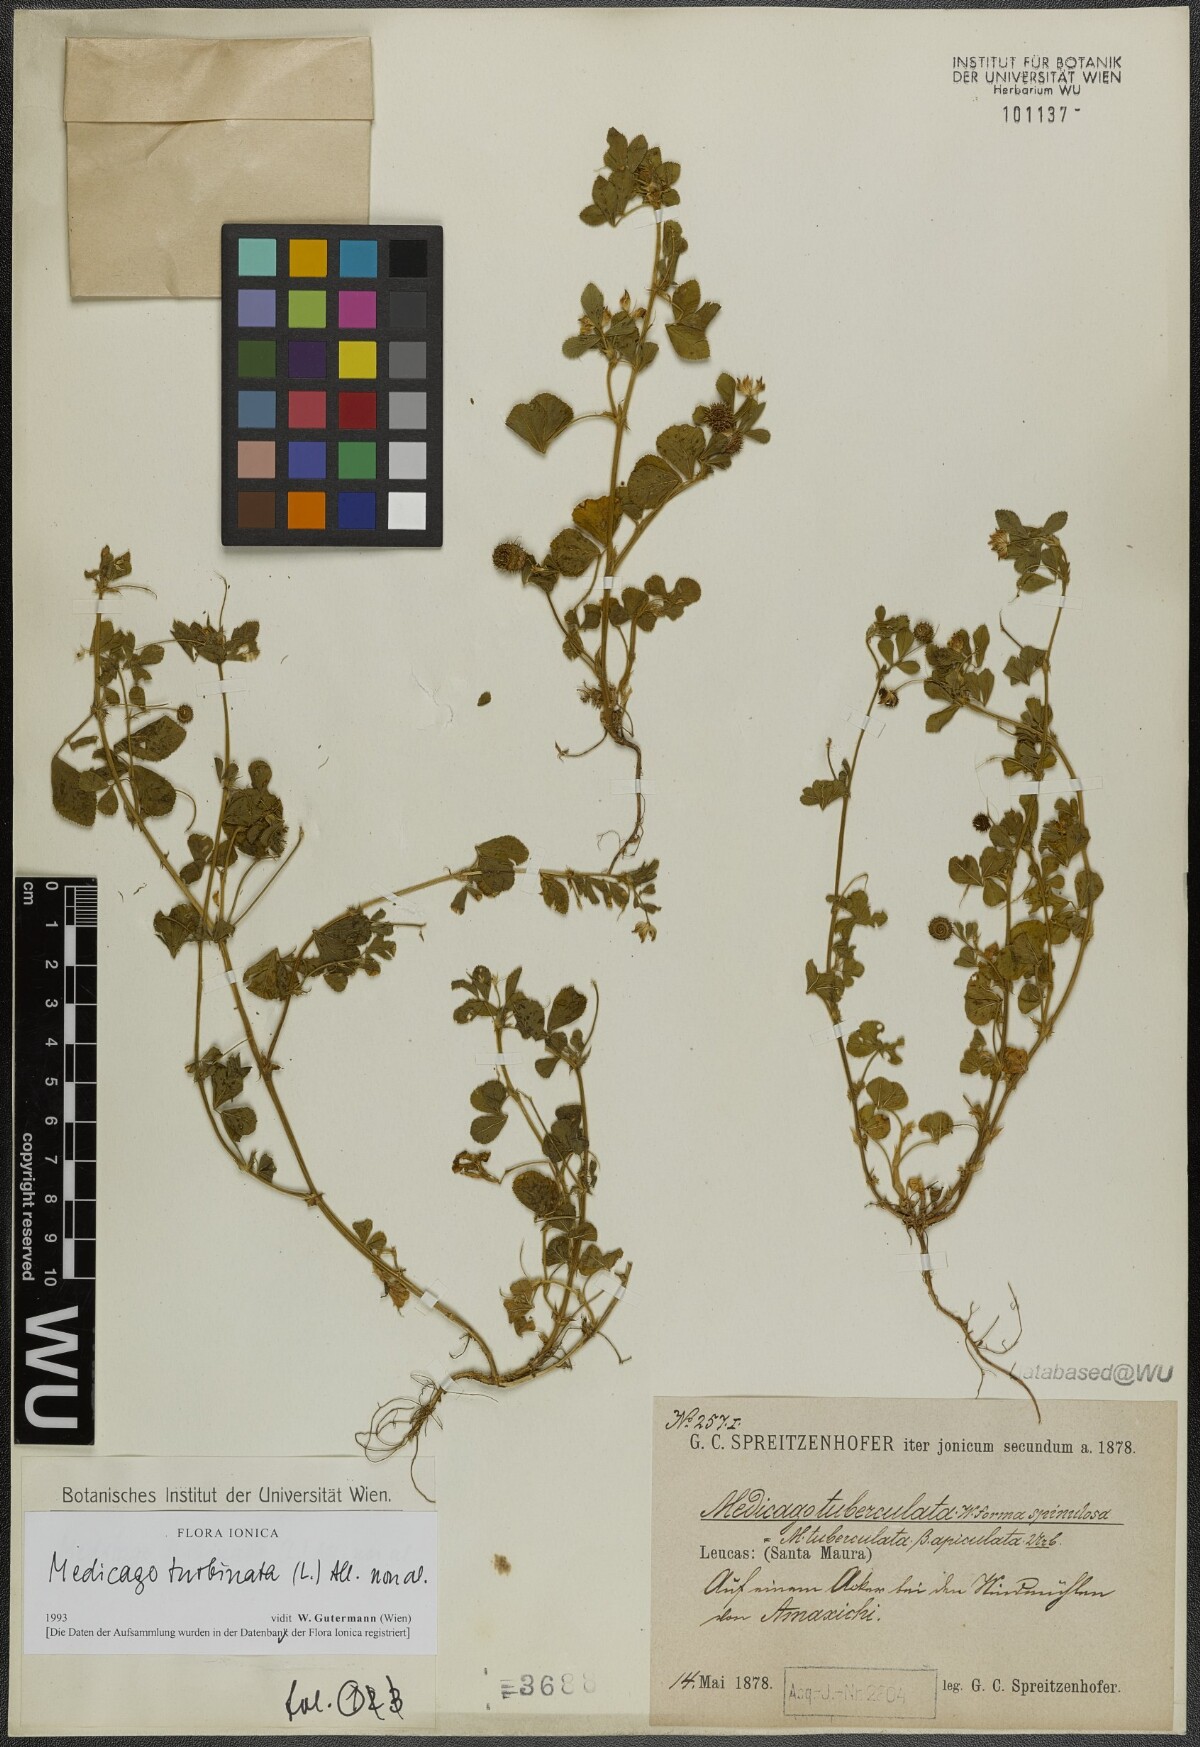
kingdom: Plantae
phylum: Tracheophyta
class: Magnoliopsida
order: Fabales
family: Fabaceae
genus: Medicago
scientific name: Medicago turbinata
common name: Southern medick
